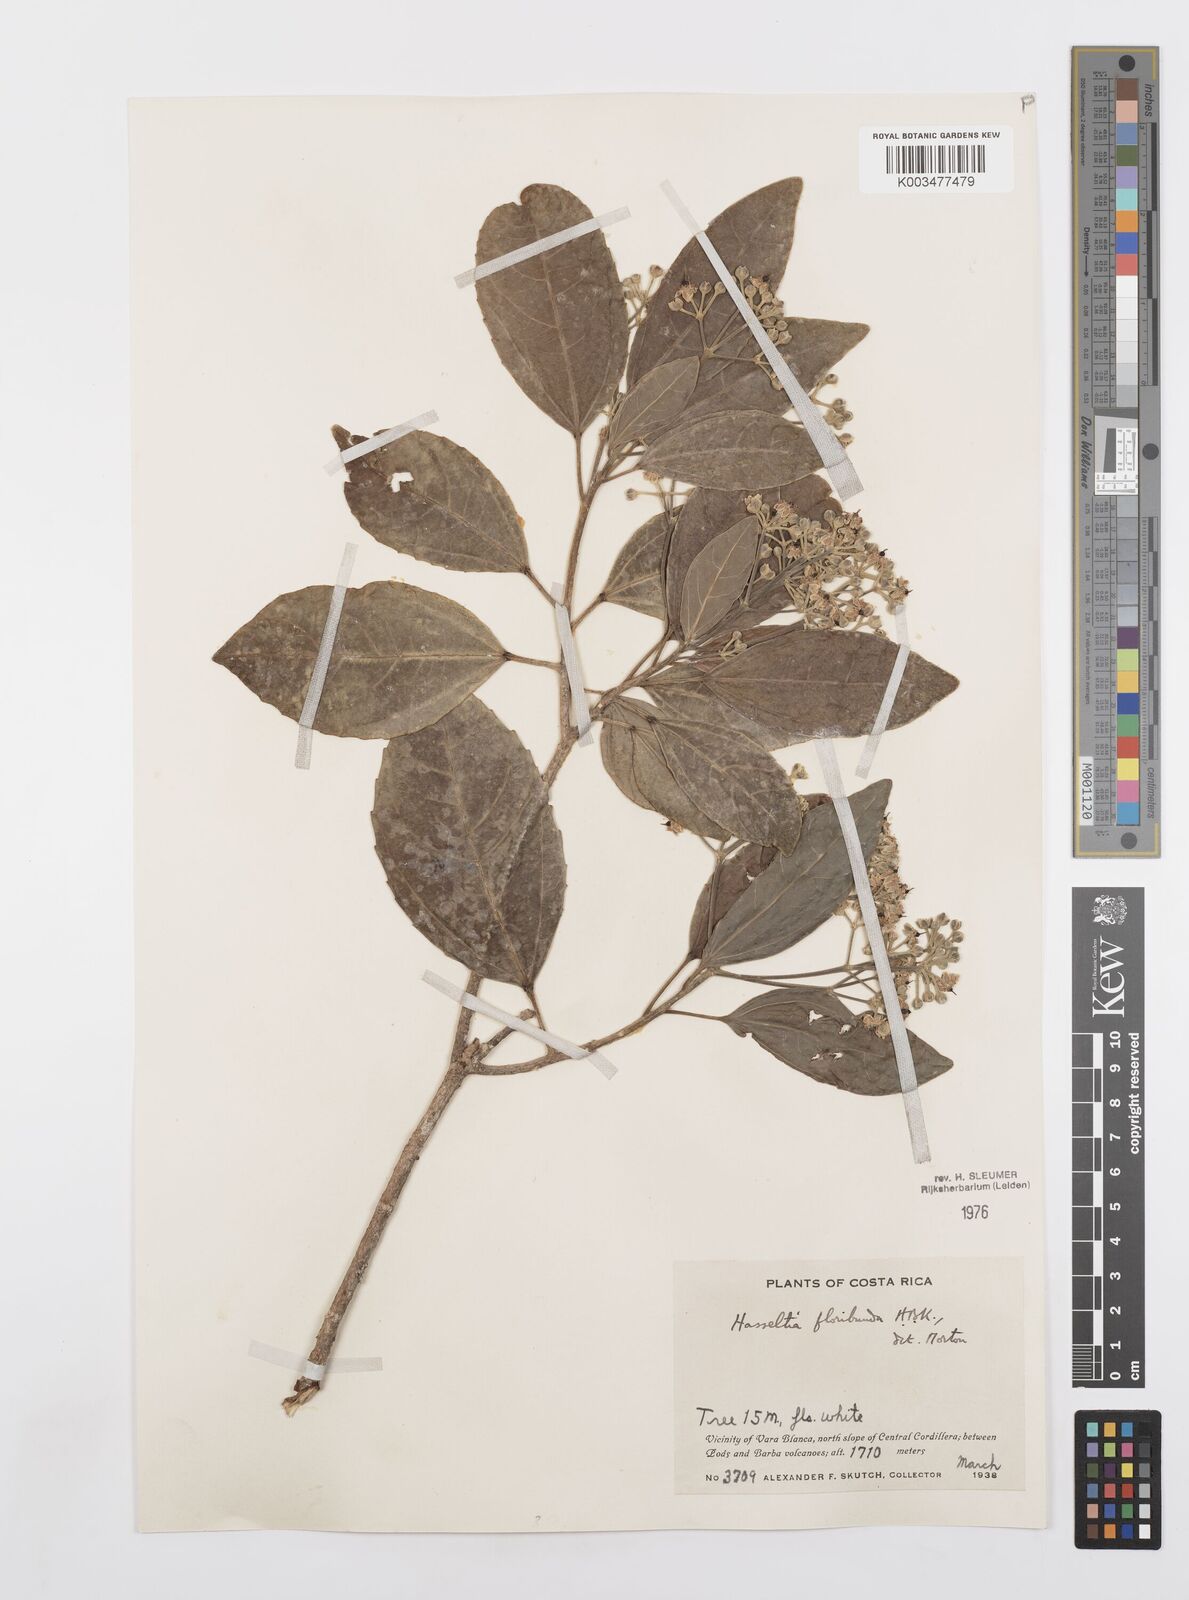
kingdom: Plantae
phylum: Tracheophyta
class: Magnoliopsida
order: Malpighiales
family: Salicaceae
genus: Hasseltia
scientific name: Hasseltia floribunda
